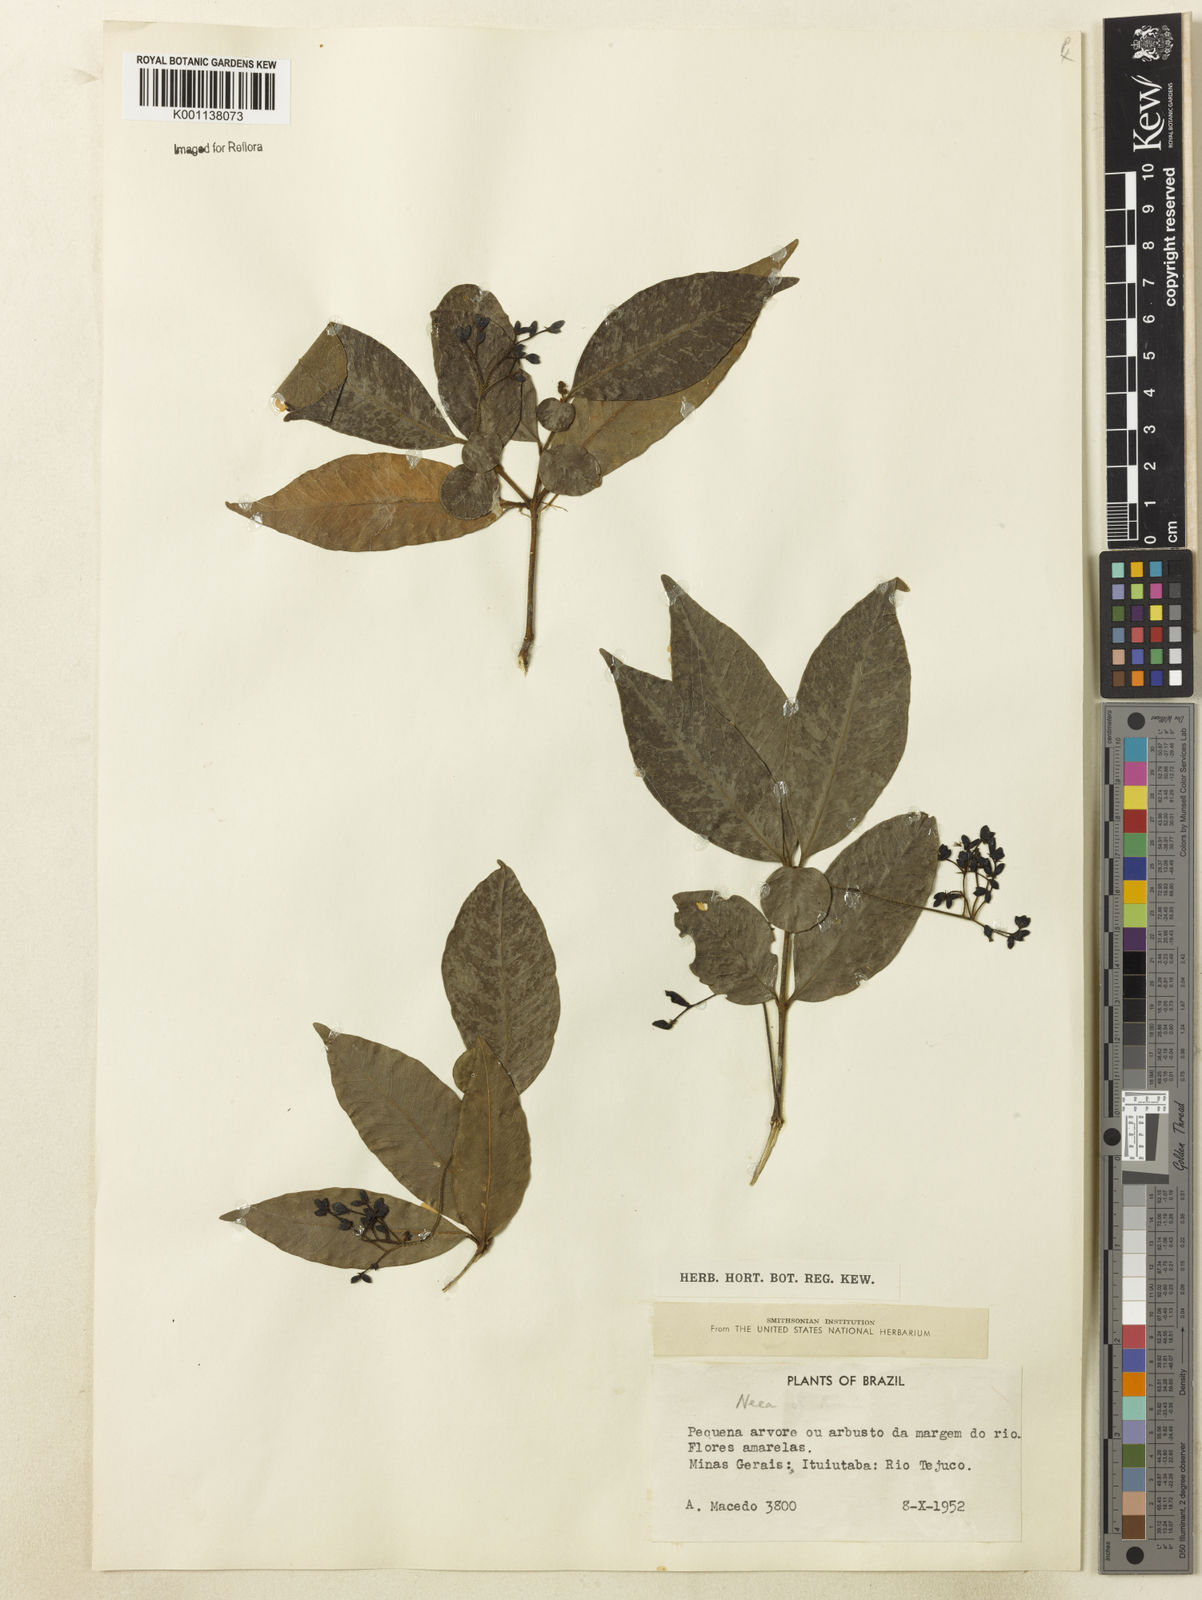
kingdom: Plantae
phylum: Tracheophyta
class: Magnoliopsida
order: Caryophyllales
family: Nyctaginaceae
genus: Neea
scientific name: Neea
